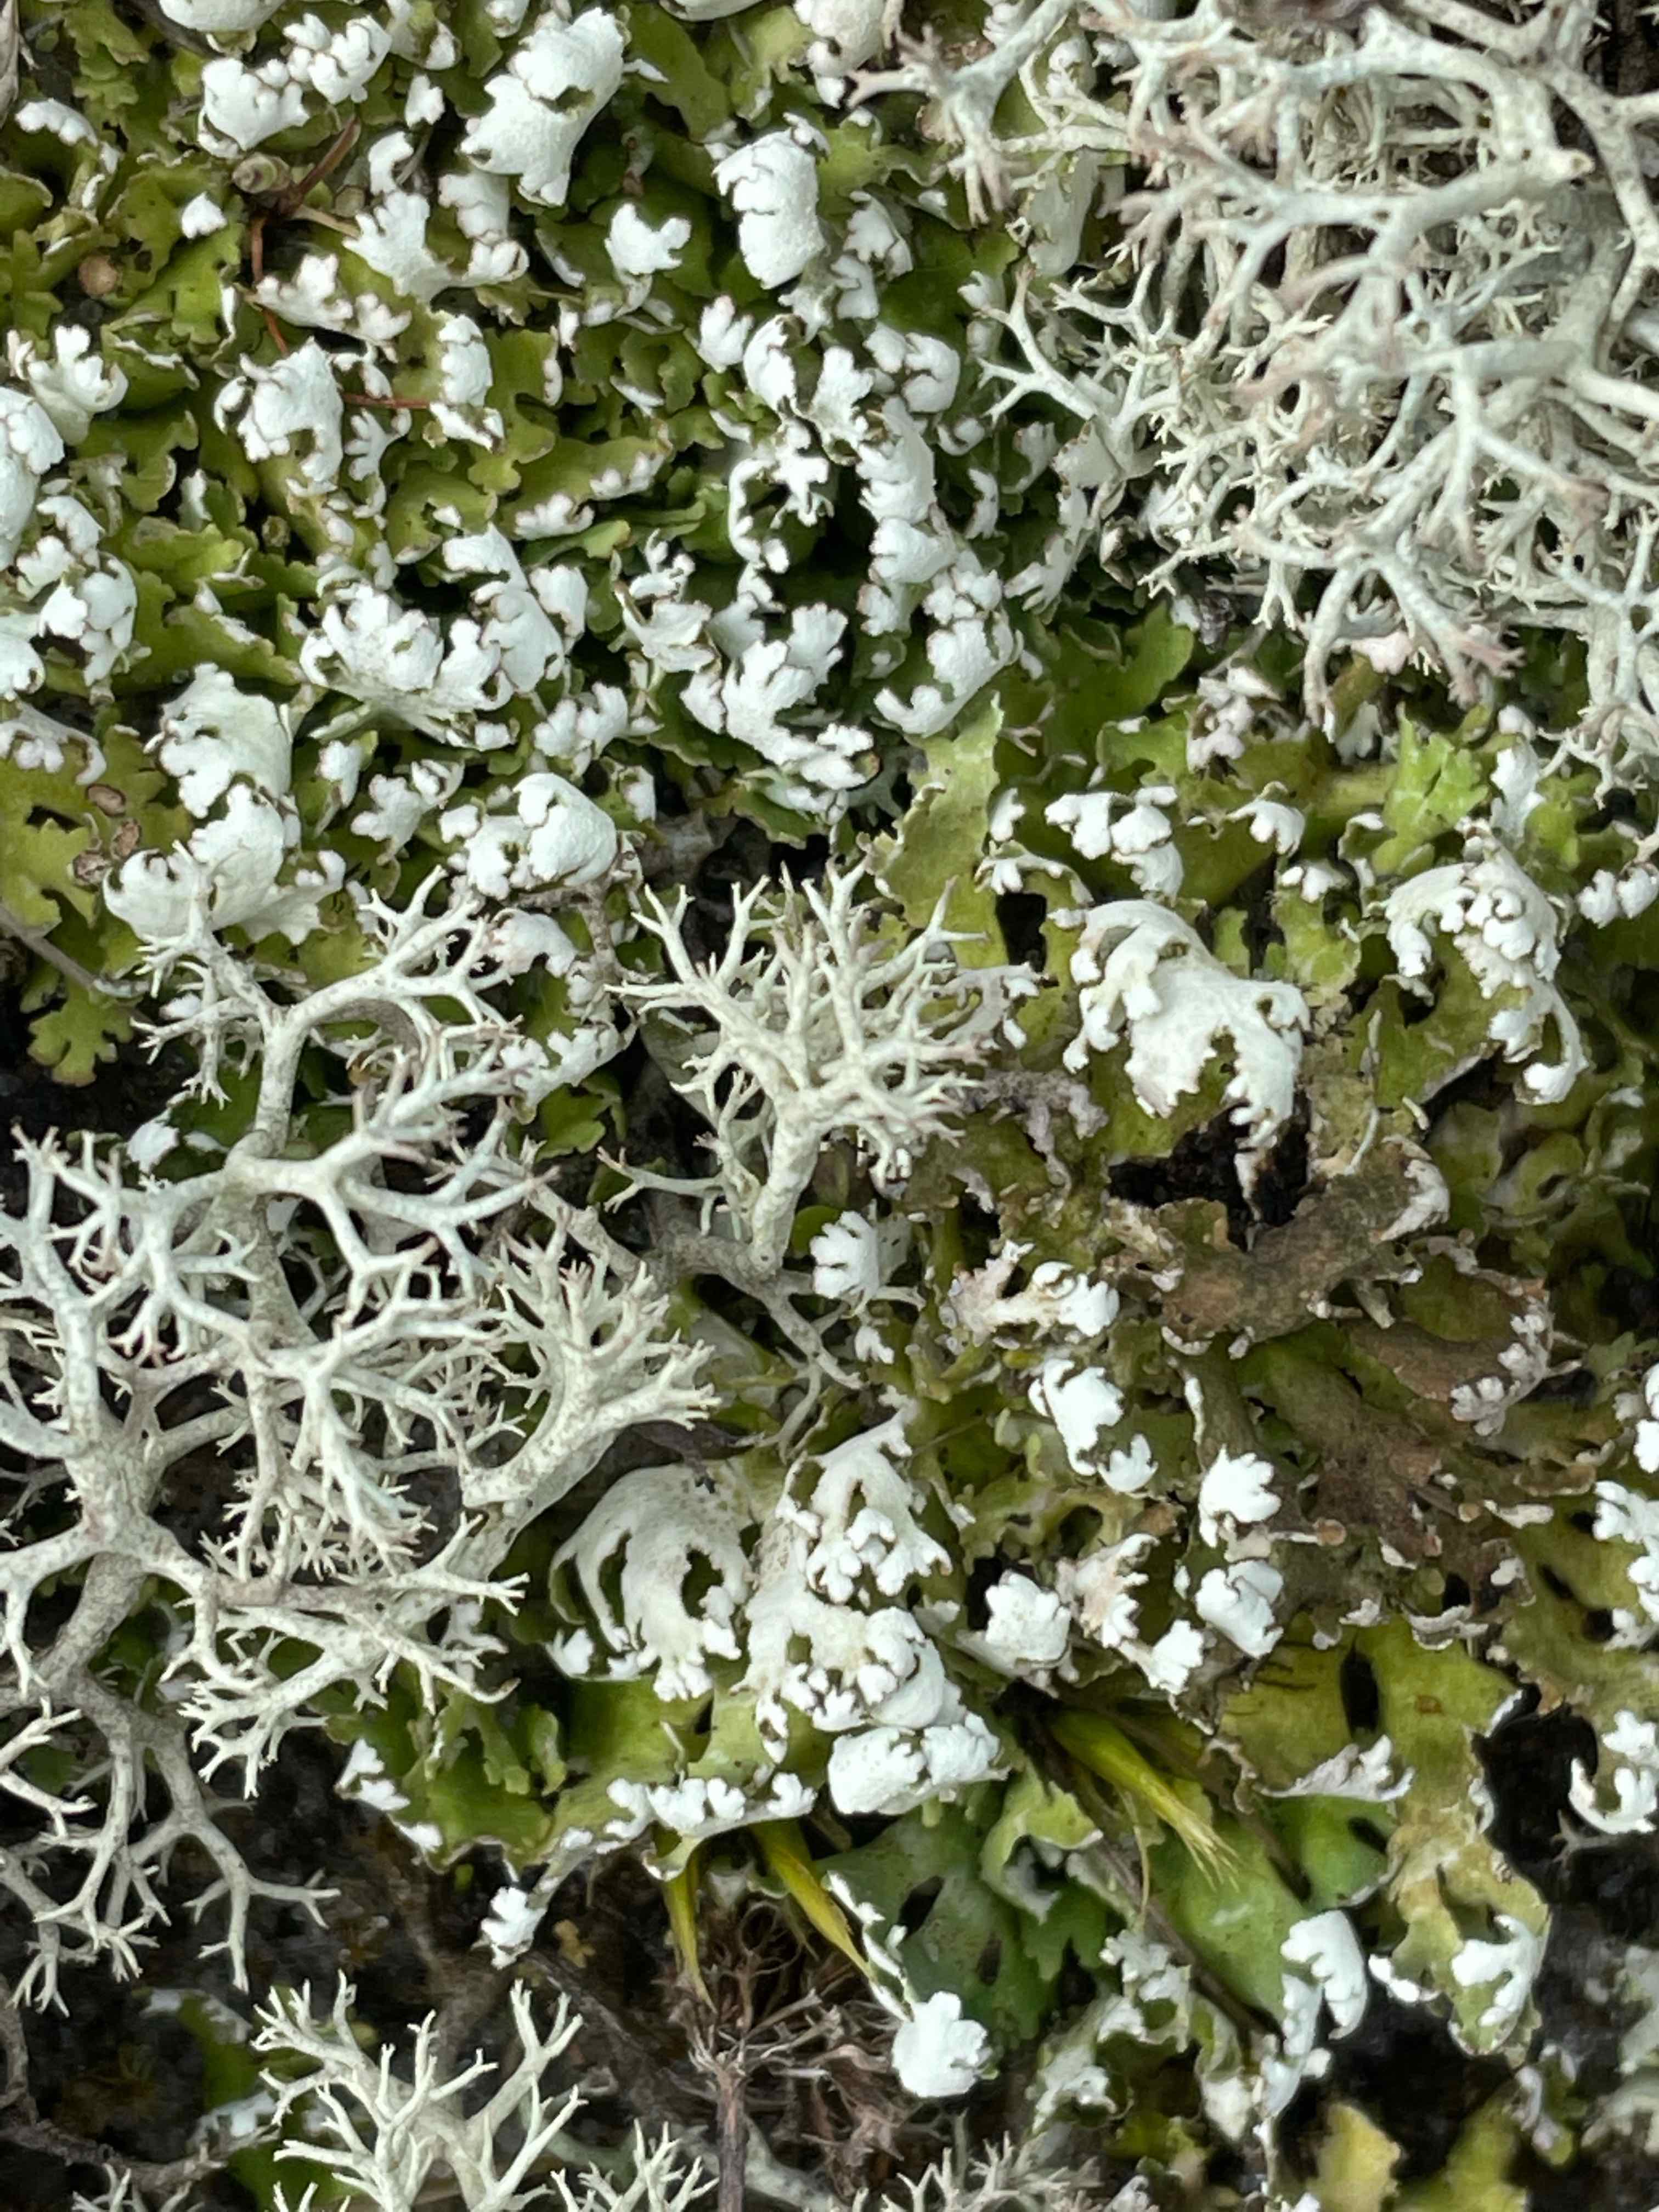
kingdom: Fungi
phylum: Ascomycota
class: Lecanoromycetes
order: Lecanorales
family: Cladoniaceae
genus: Cladonia
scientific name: Cladonia foliacea
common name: fliget bægerlav
